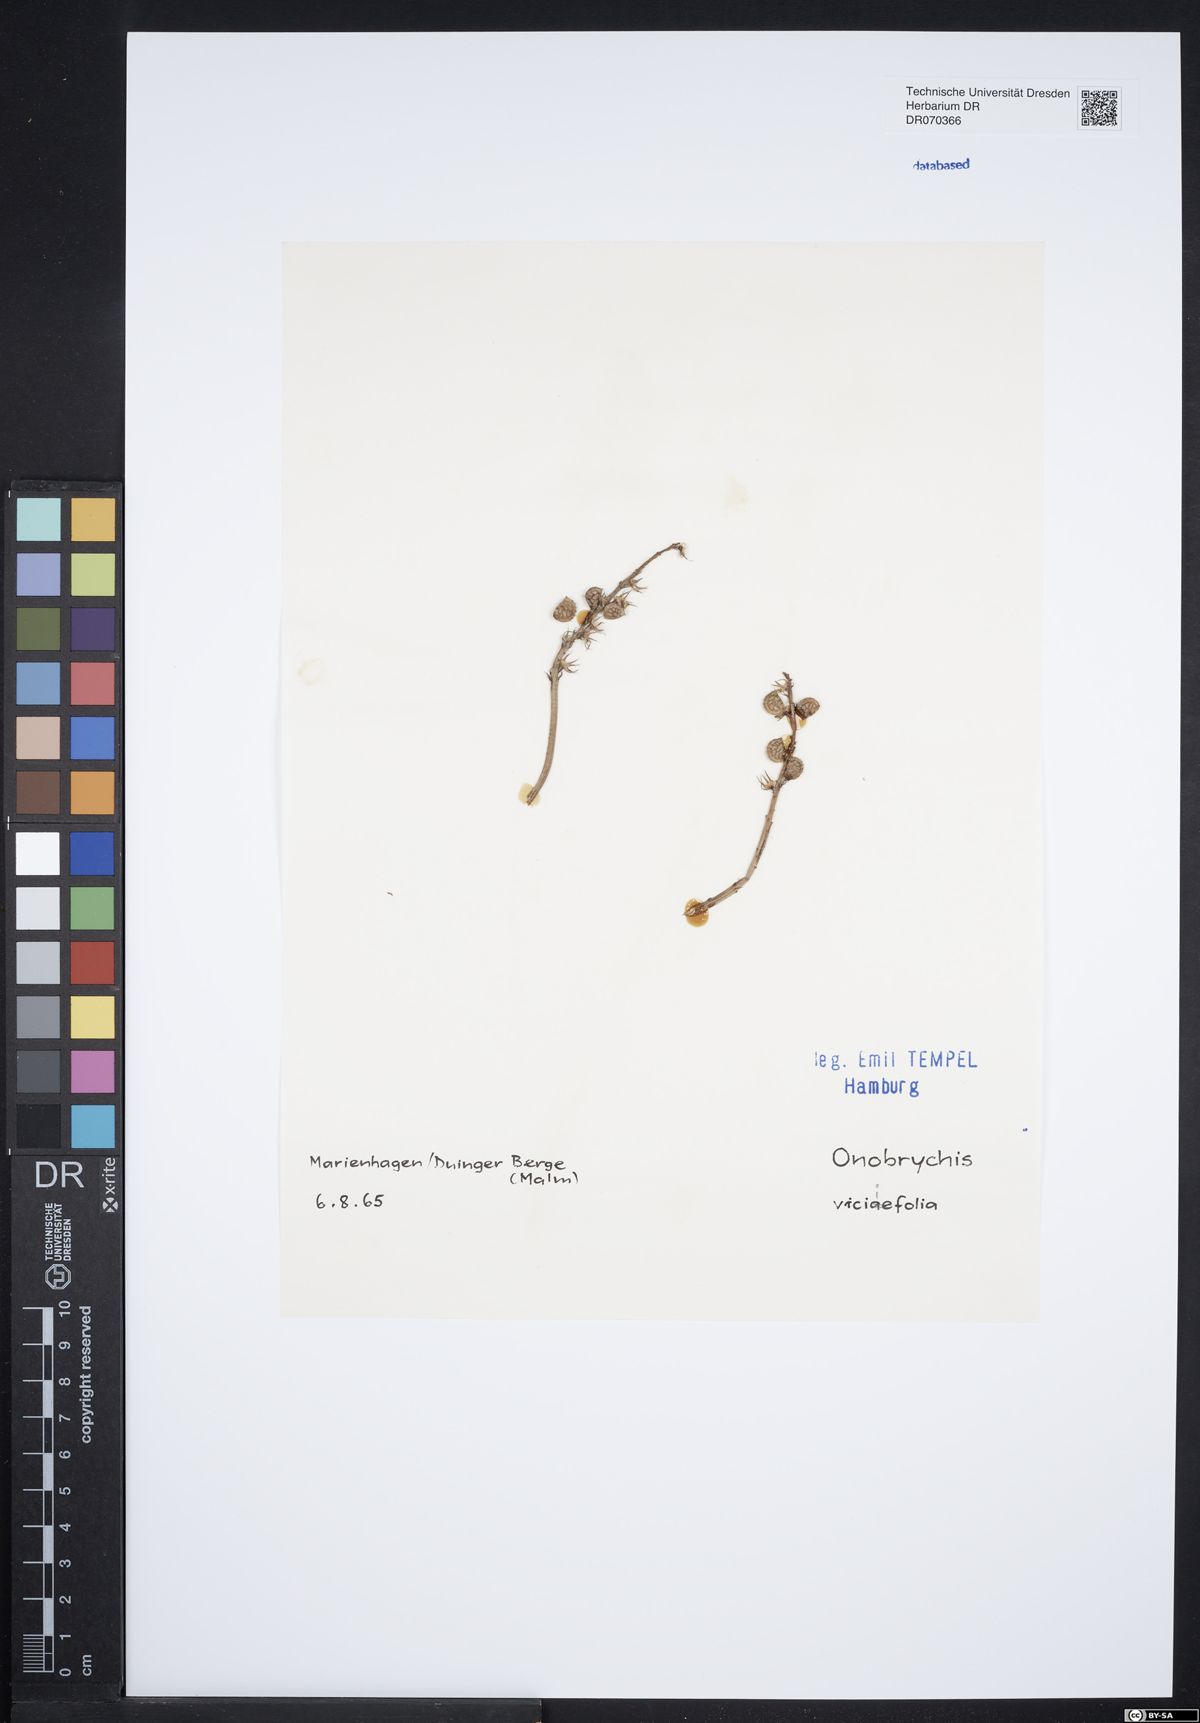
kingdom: Plantae
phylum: Tracheophyta
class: Magnoliopsida
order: Fabales
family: Fabaceae
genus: Onobrychis
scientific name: Onobrychis viciifolia
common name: Sainfoin
